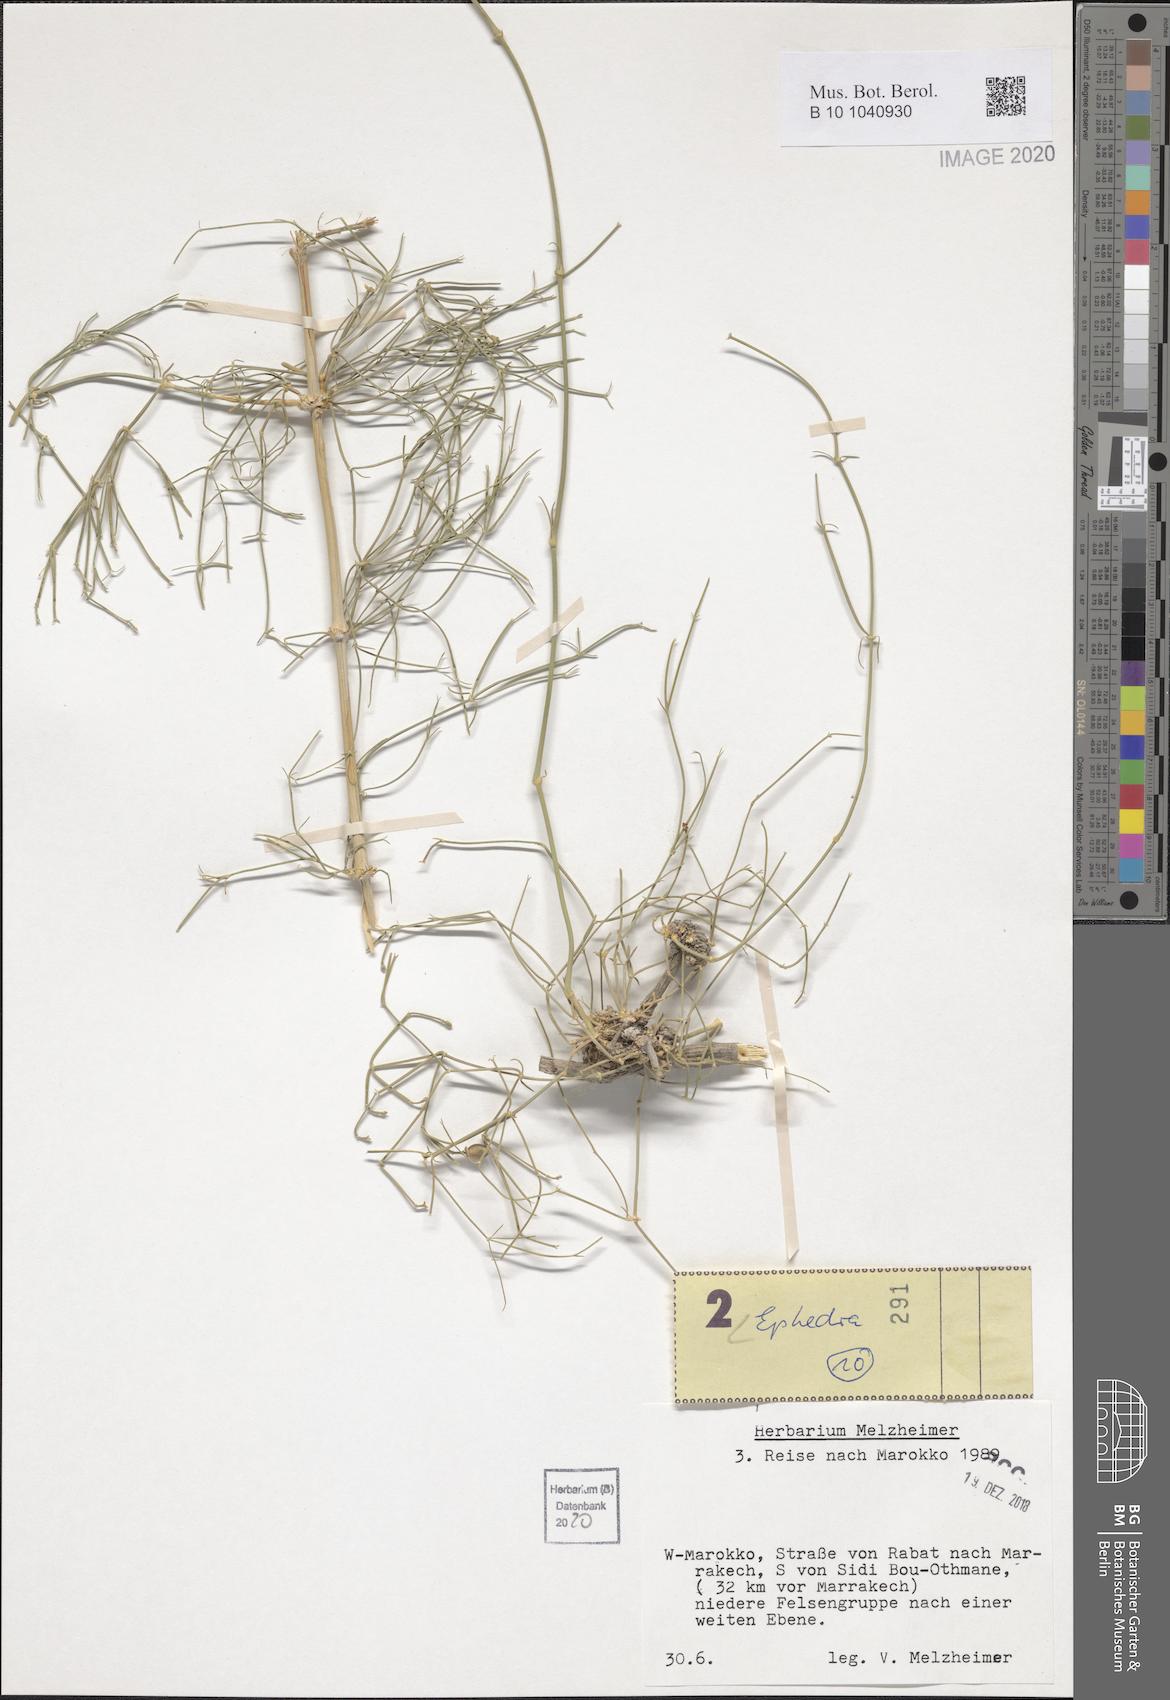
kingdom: Plantae
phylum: Tracheophyta
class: Gnetopsida
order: Ephedrales
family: Ephedraceae
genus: Ephedra
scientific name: Ephedra
